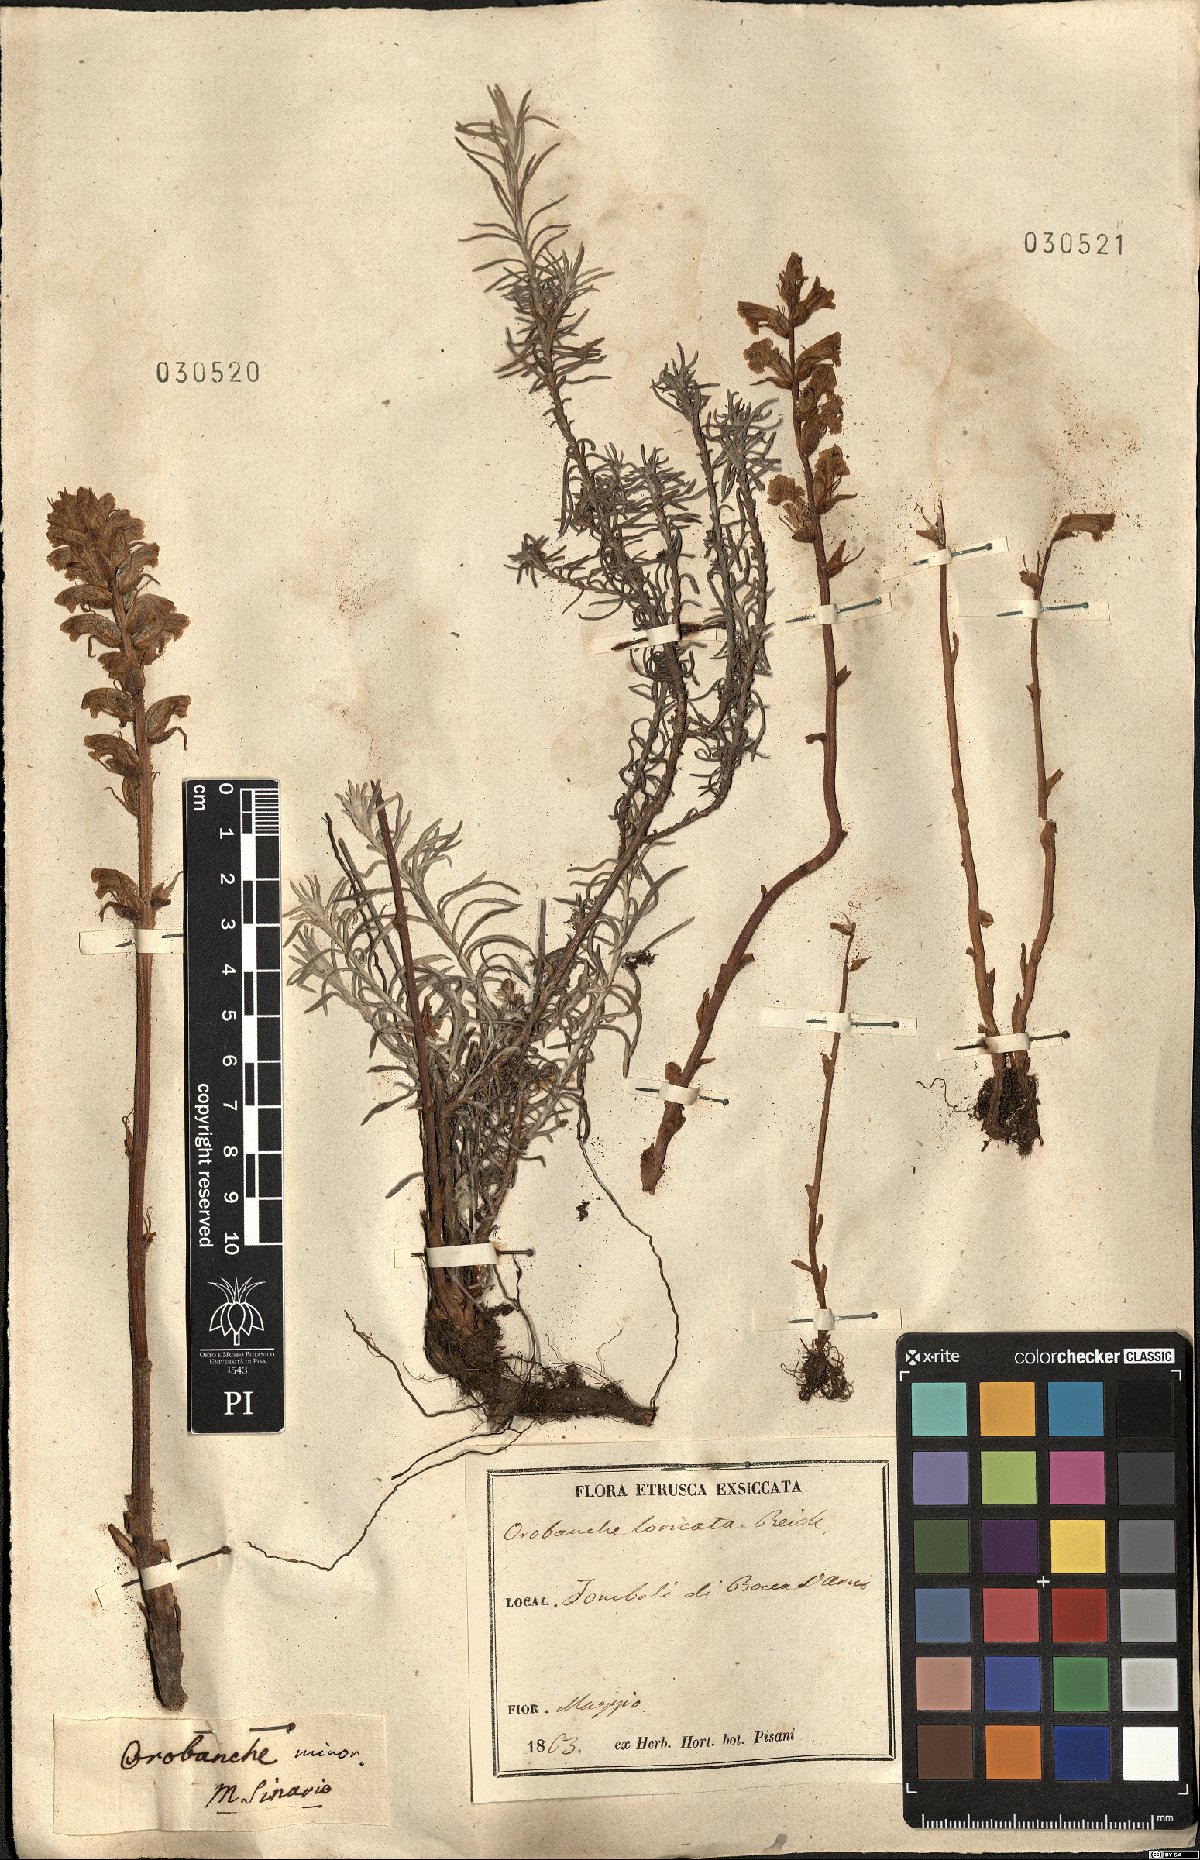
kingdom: Plantae
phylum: Tracheophyta
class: Magnoliopsida
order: Lamiales
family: Orobanchaceae
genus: Orobanche
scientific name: Orobanche minor
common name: Common broomrape
